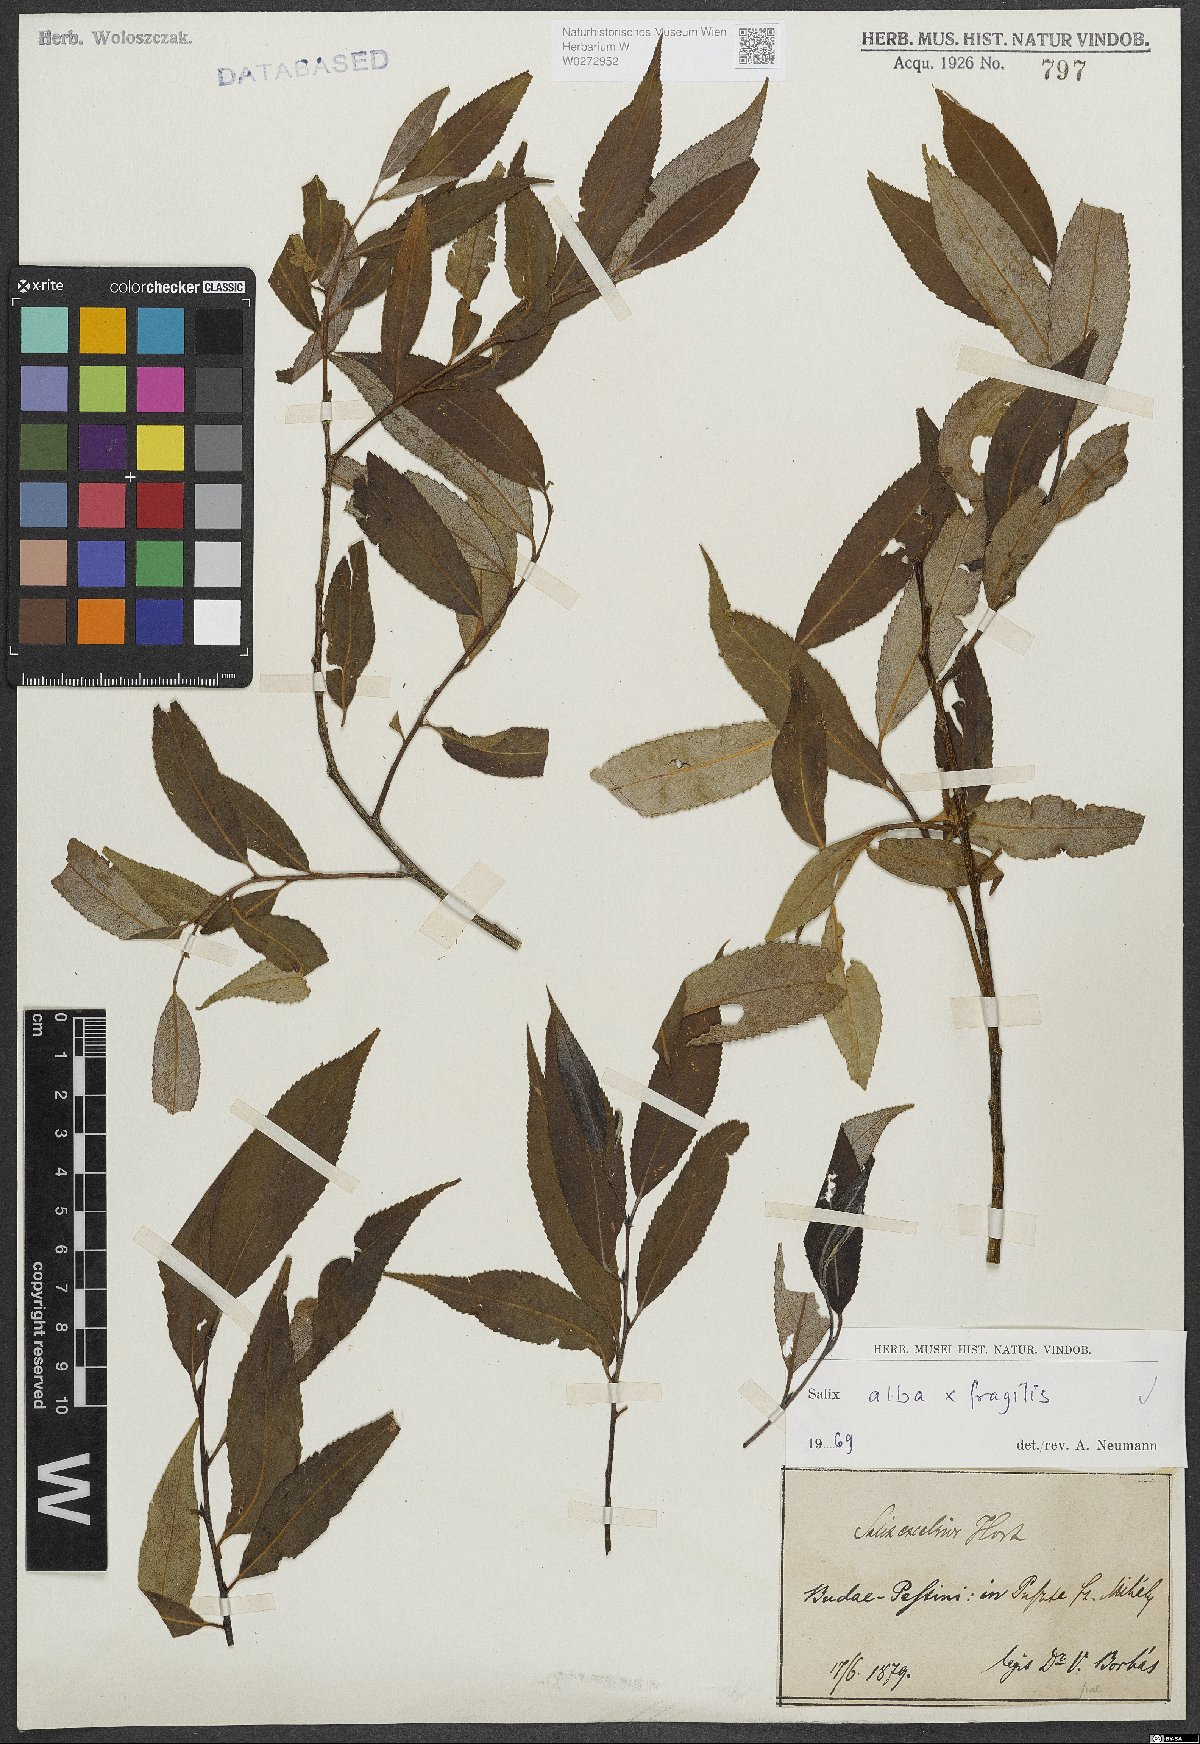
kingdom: Plantae
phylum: Tracheophyta
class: Magnoliopsida
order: Malpighiales
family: Salicaceae
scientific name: Salicaceae
